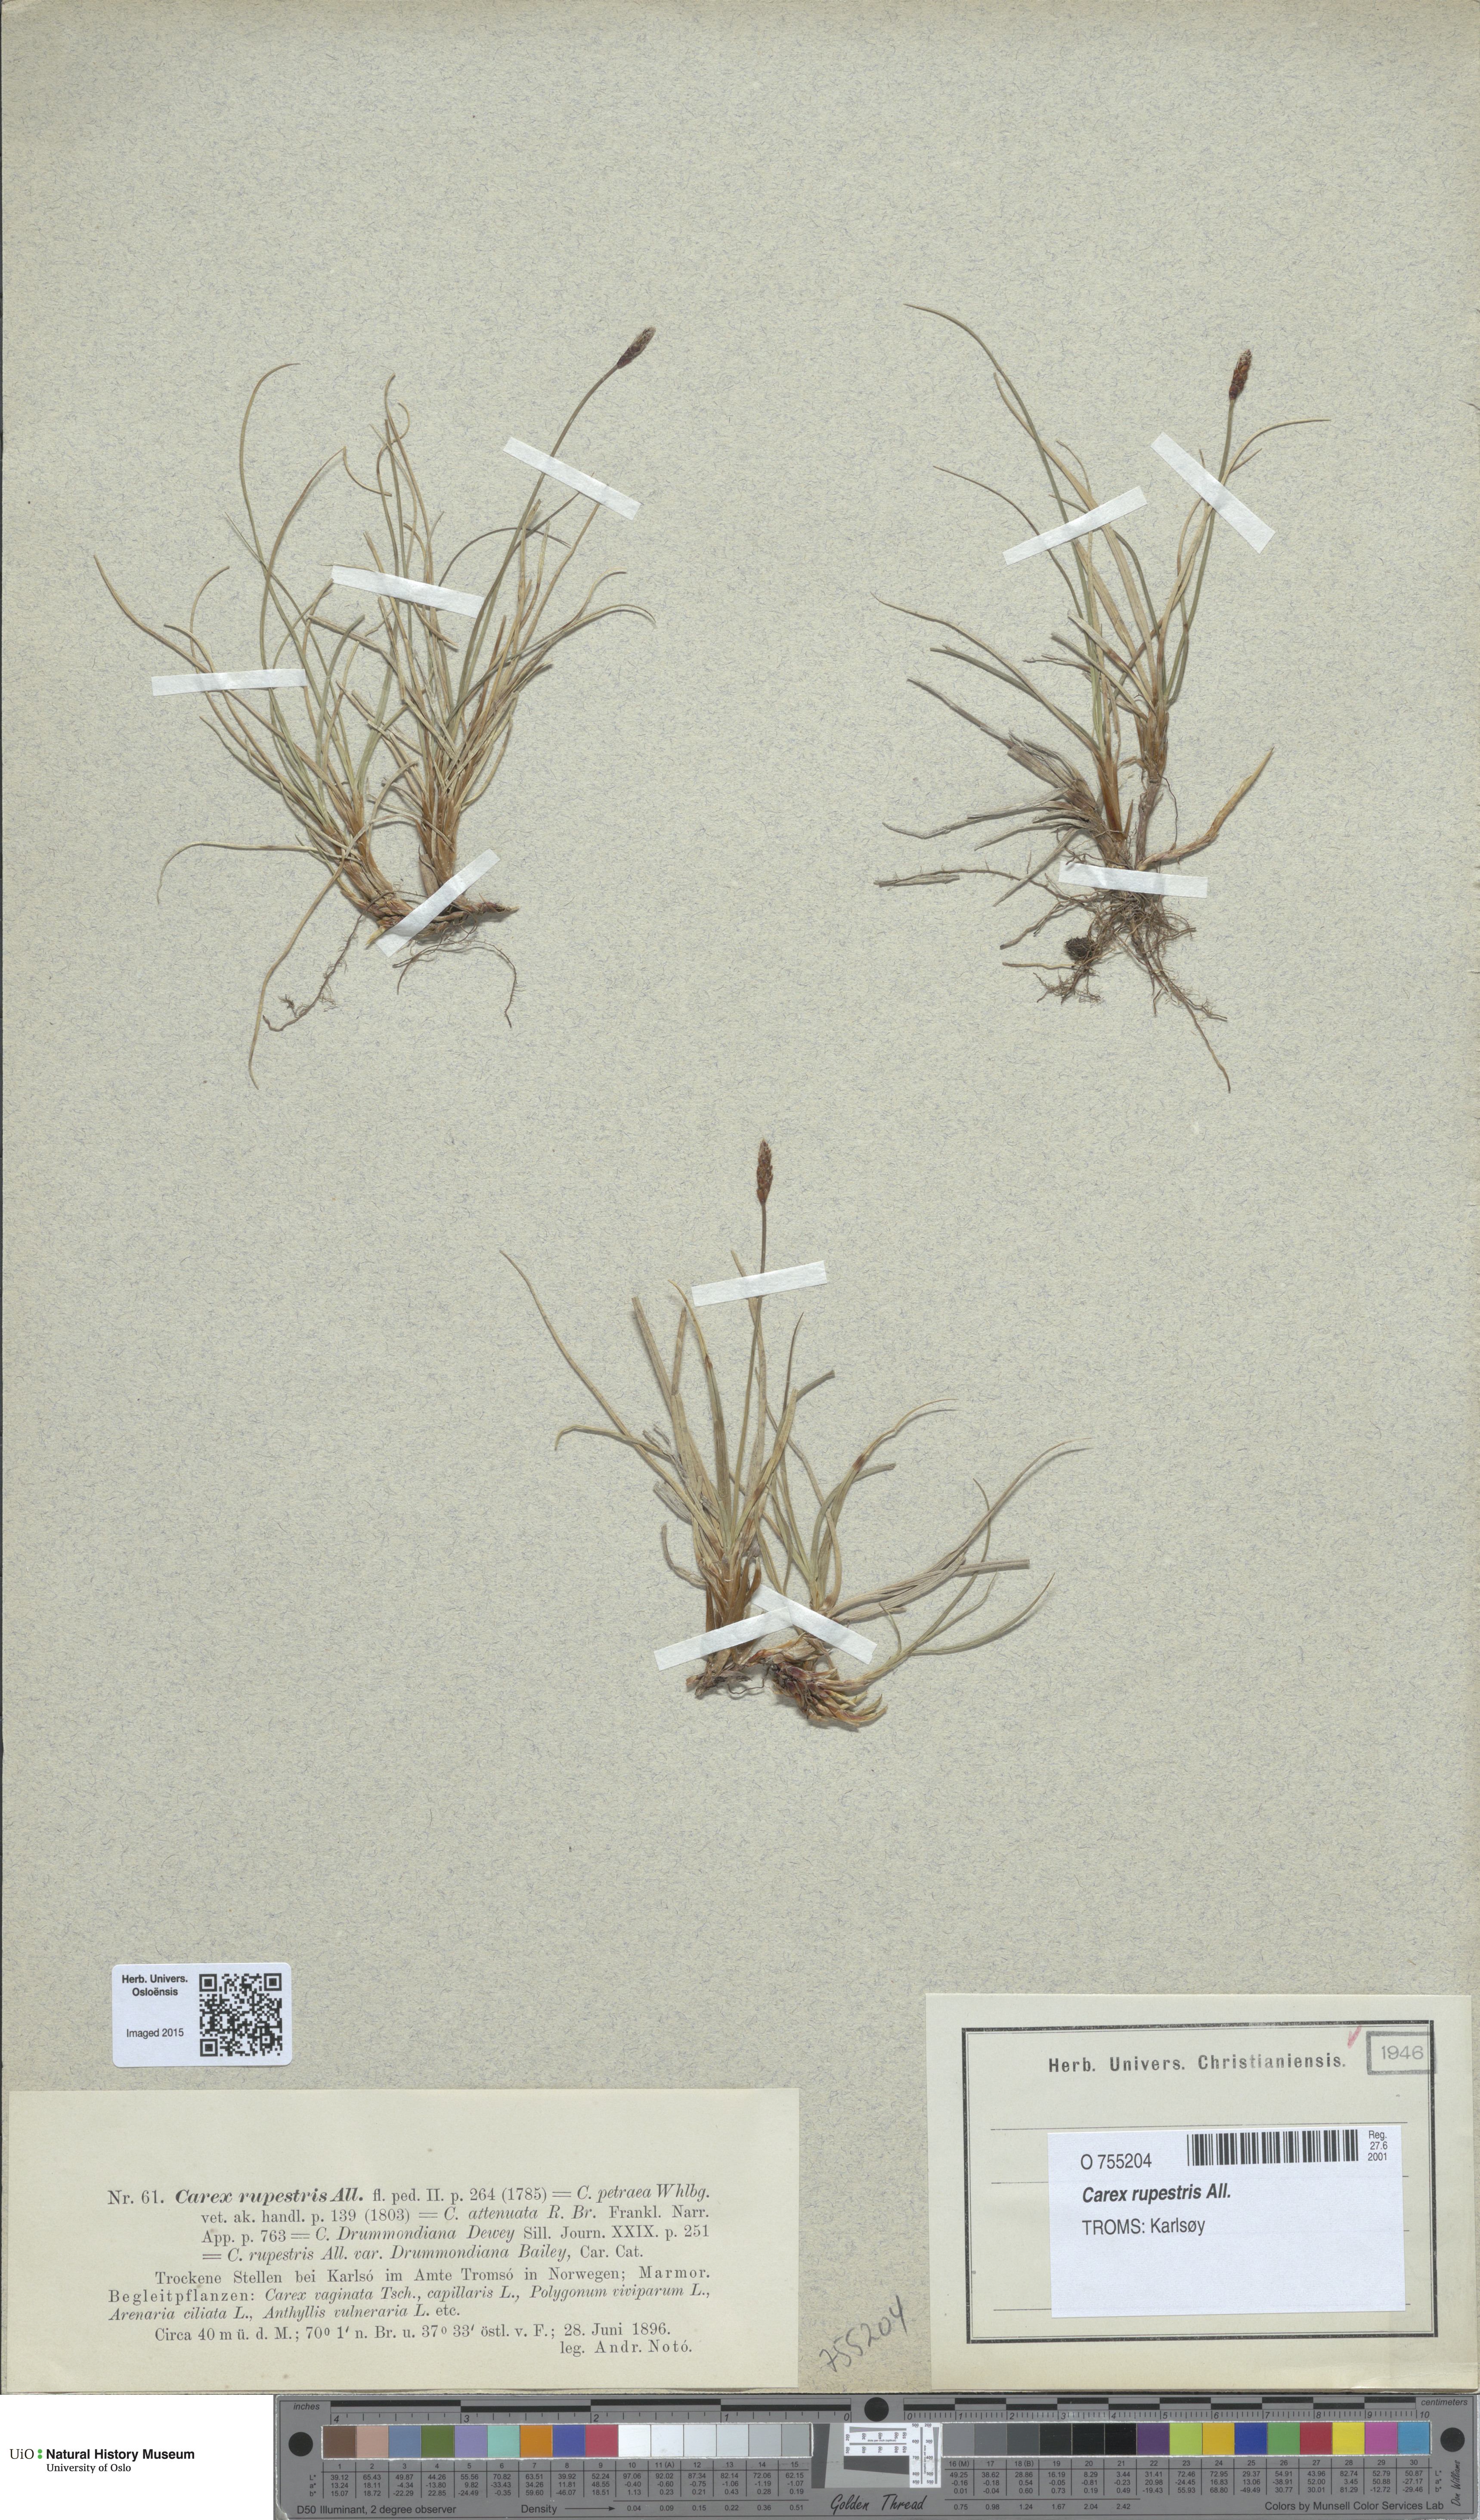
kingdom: Plantae
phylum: Tracheophyta
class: Liliopsida
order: Poales
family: Cyperaceae
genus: Carex
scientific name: Carex rupestris
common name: Rock sedge
